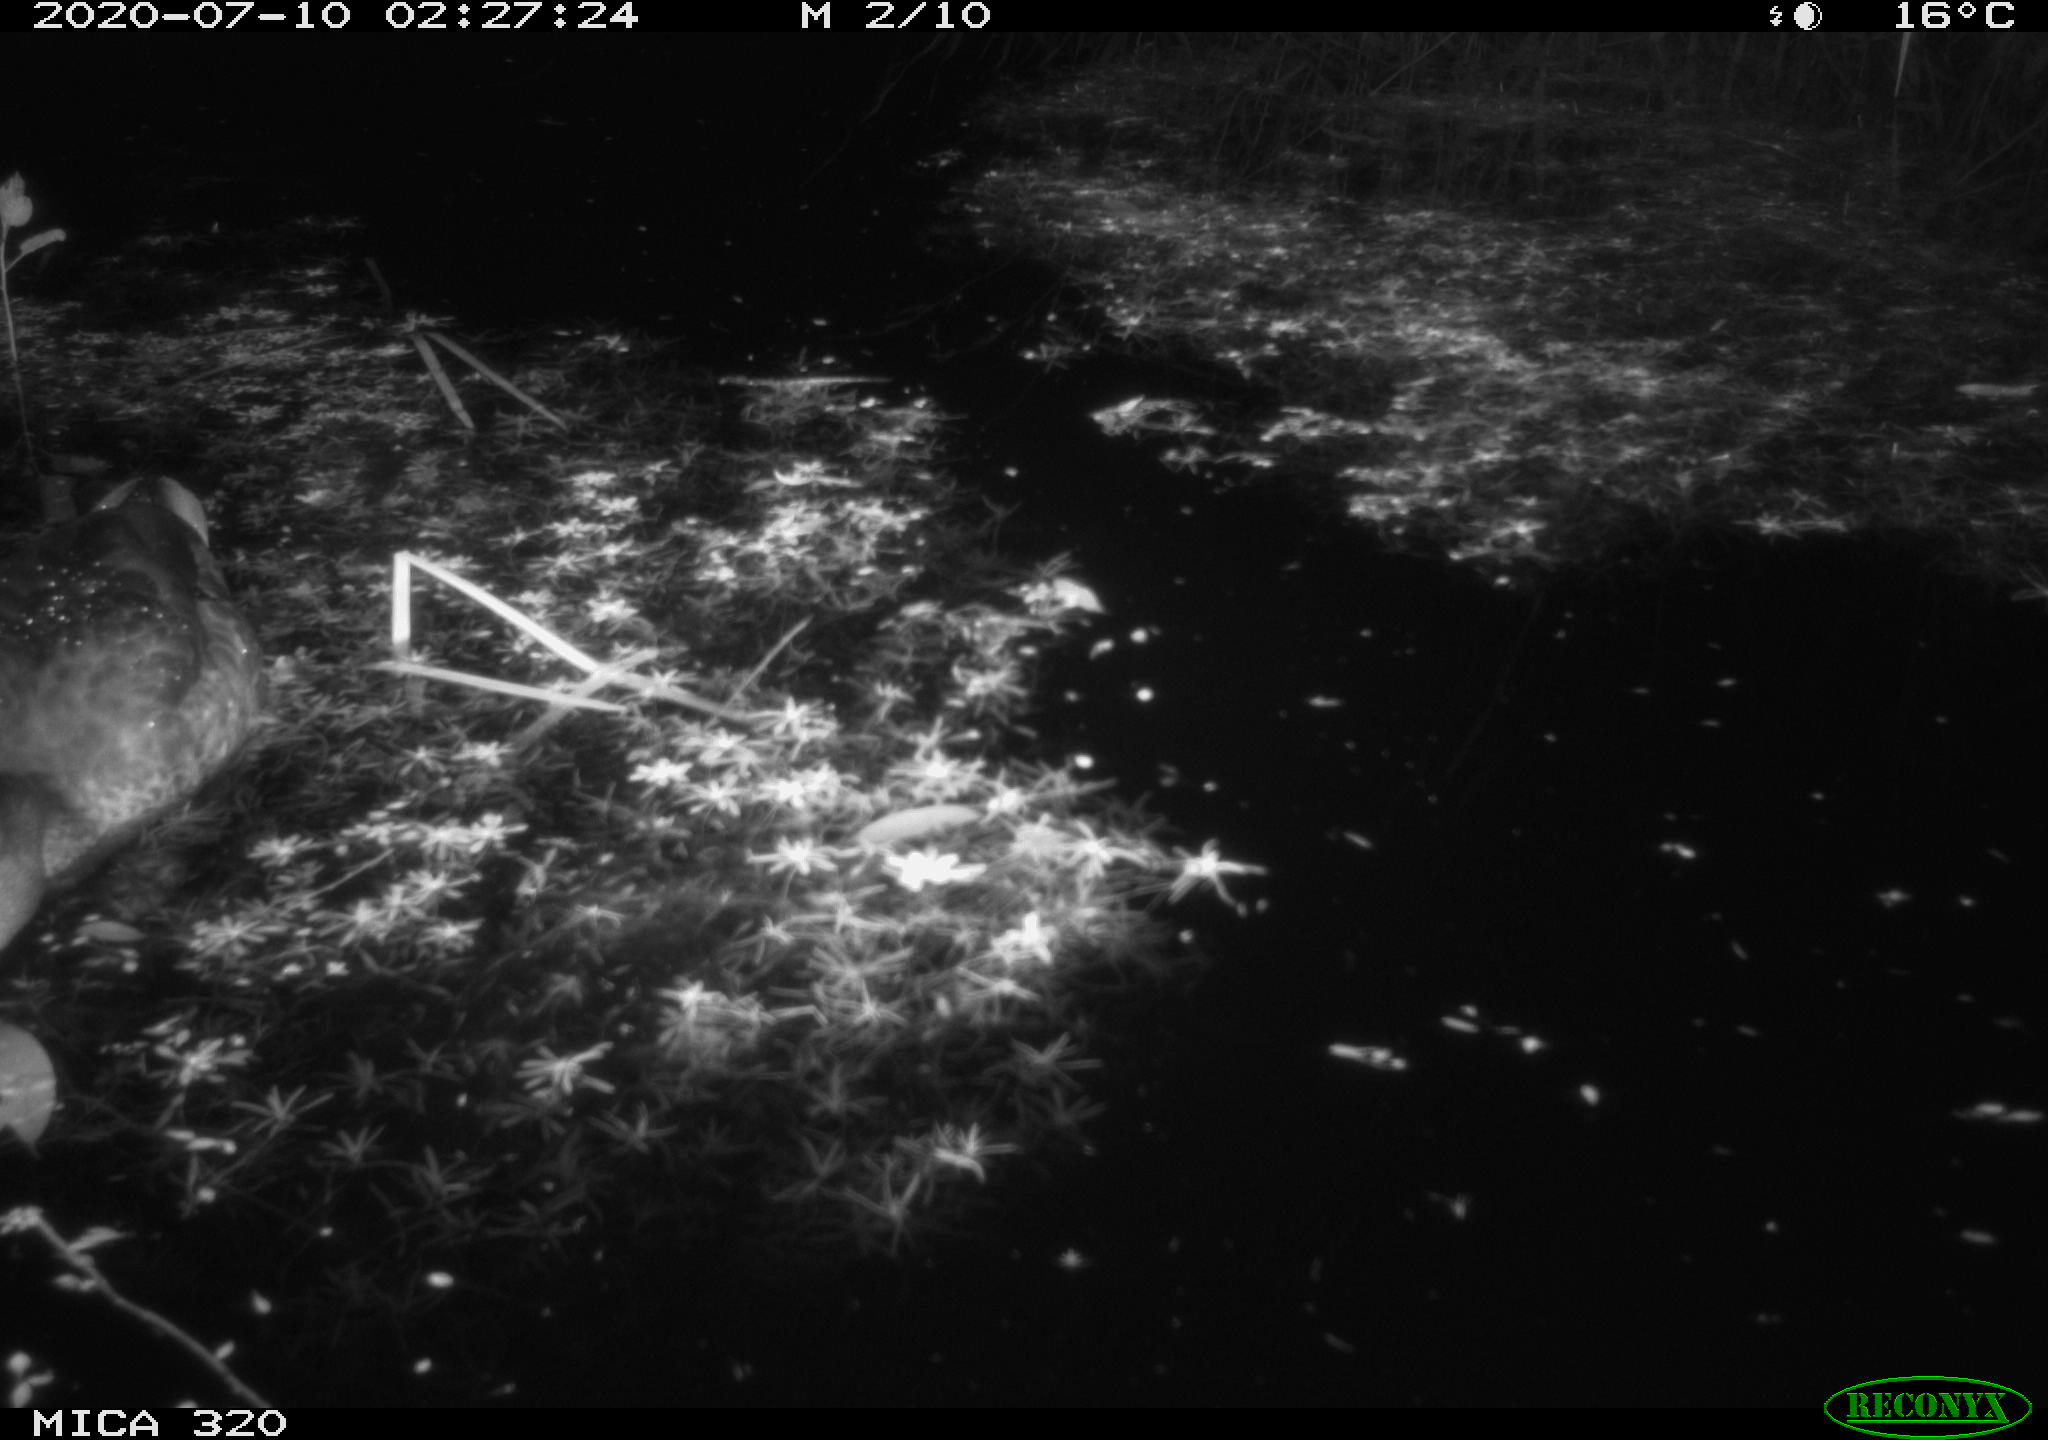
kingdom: Animalia
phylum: Chordata
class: Aves
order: Anseriformes
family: Anatidae
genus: Anas
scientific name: Anas platyrhynchos
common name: Mallard
